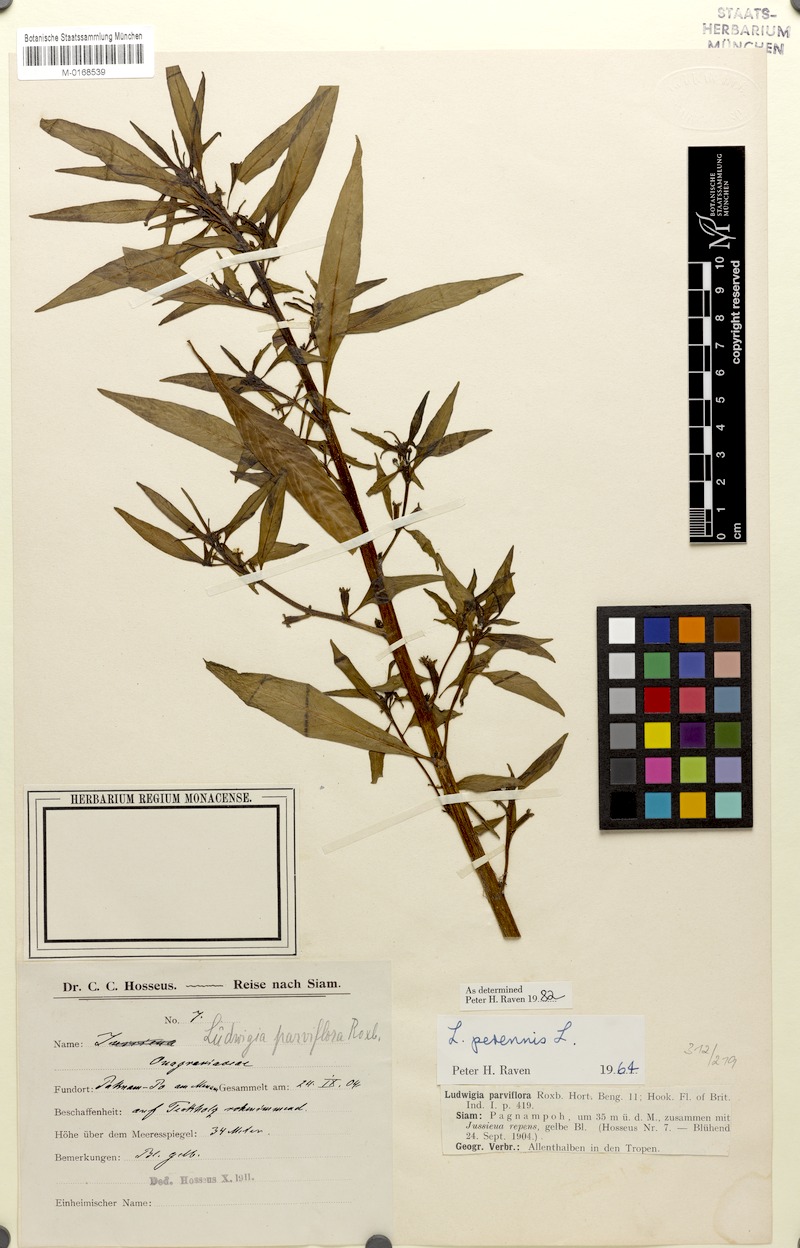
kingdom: Plantae
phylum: Tracheophyta
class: Magnoliopsida
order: Myrtales
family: Onagraceae
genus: Ludwigia
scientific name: Ludwigia perennis
